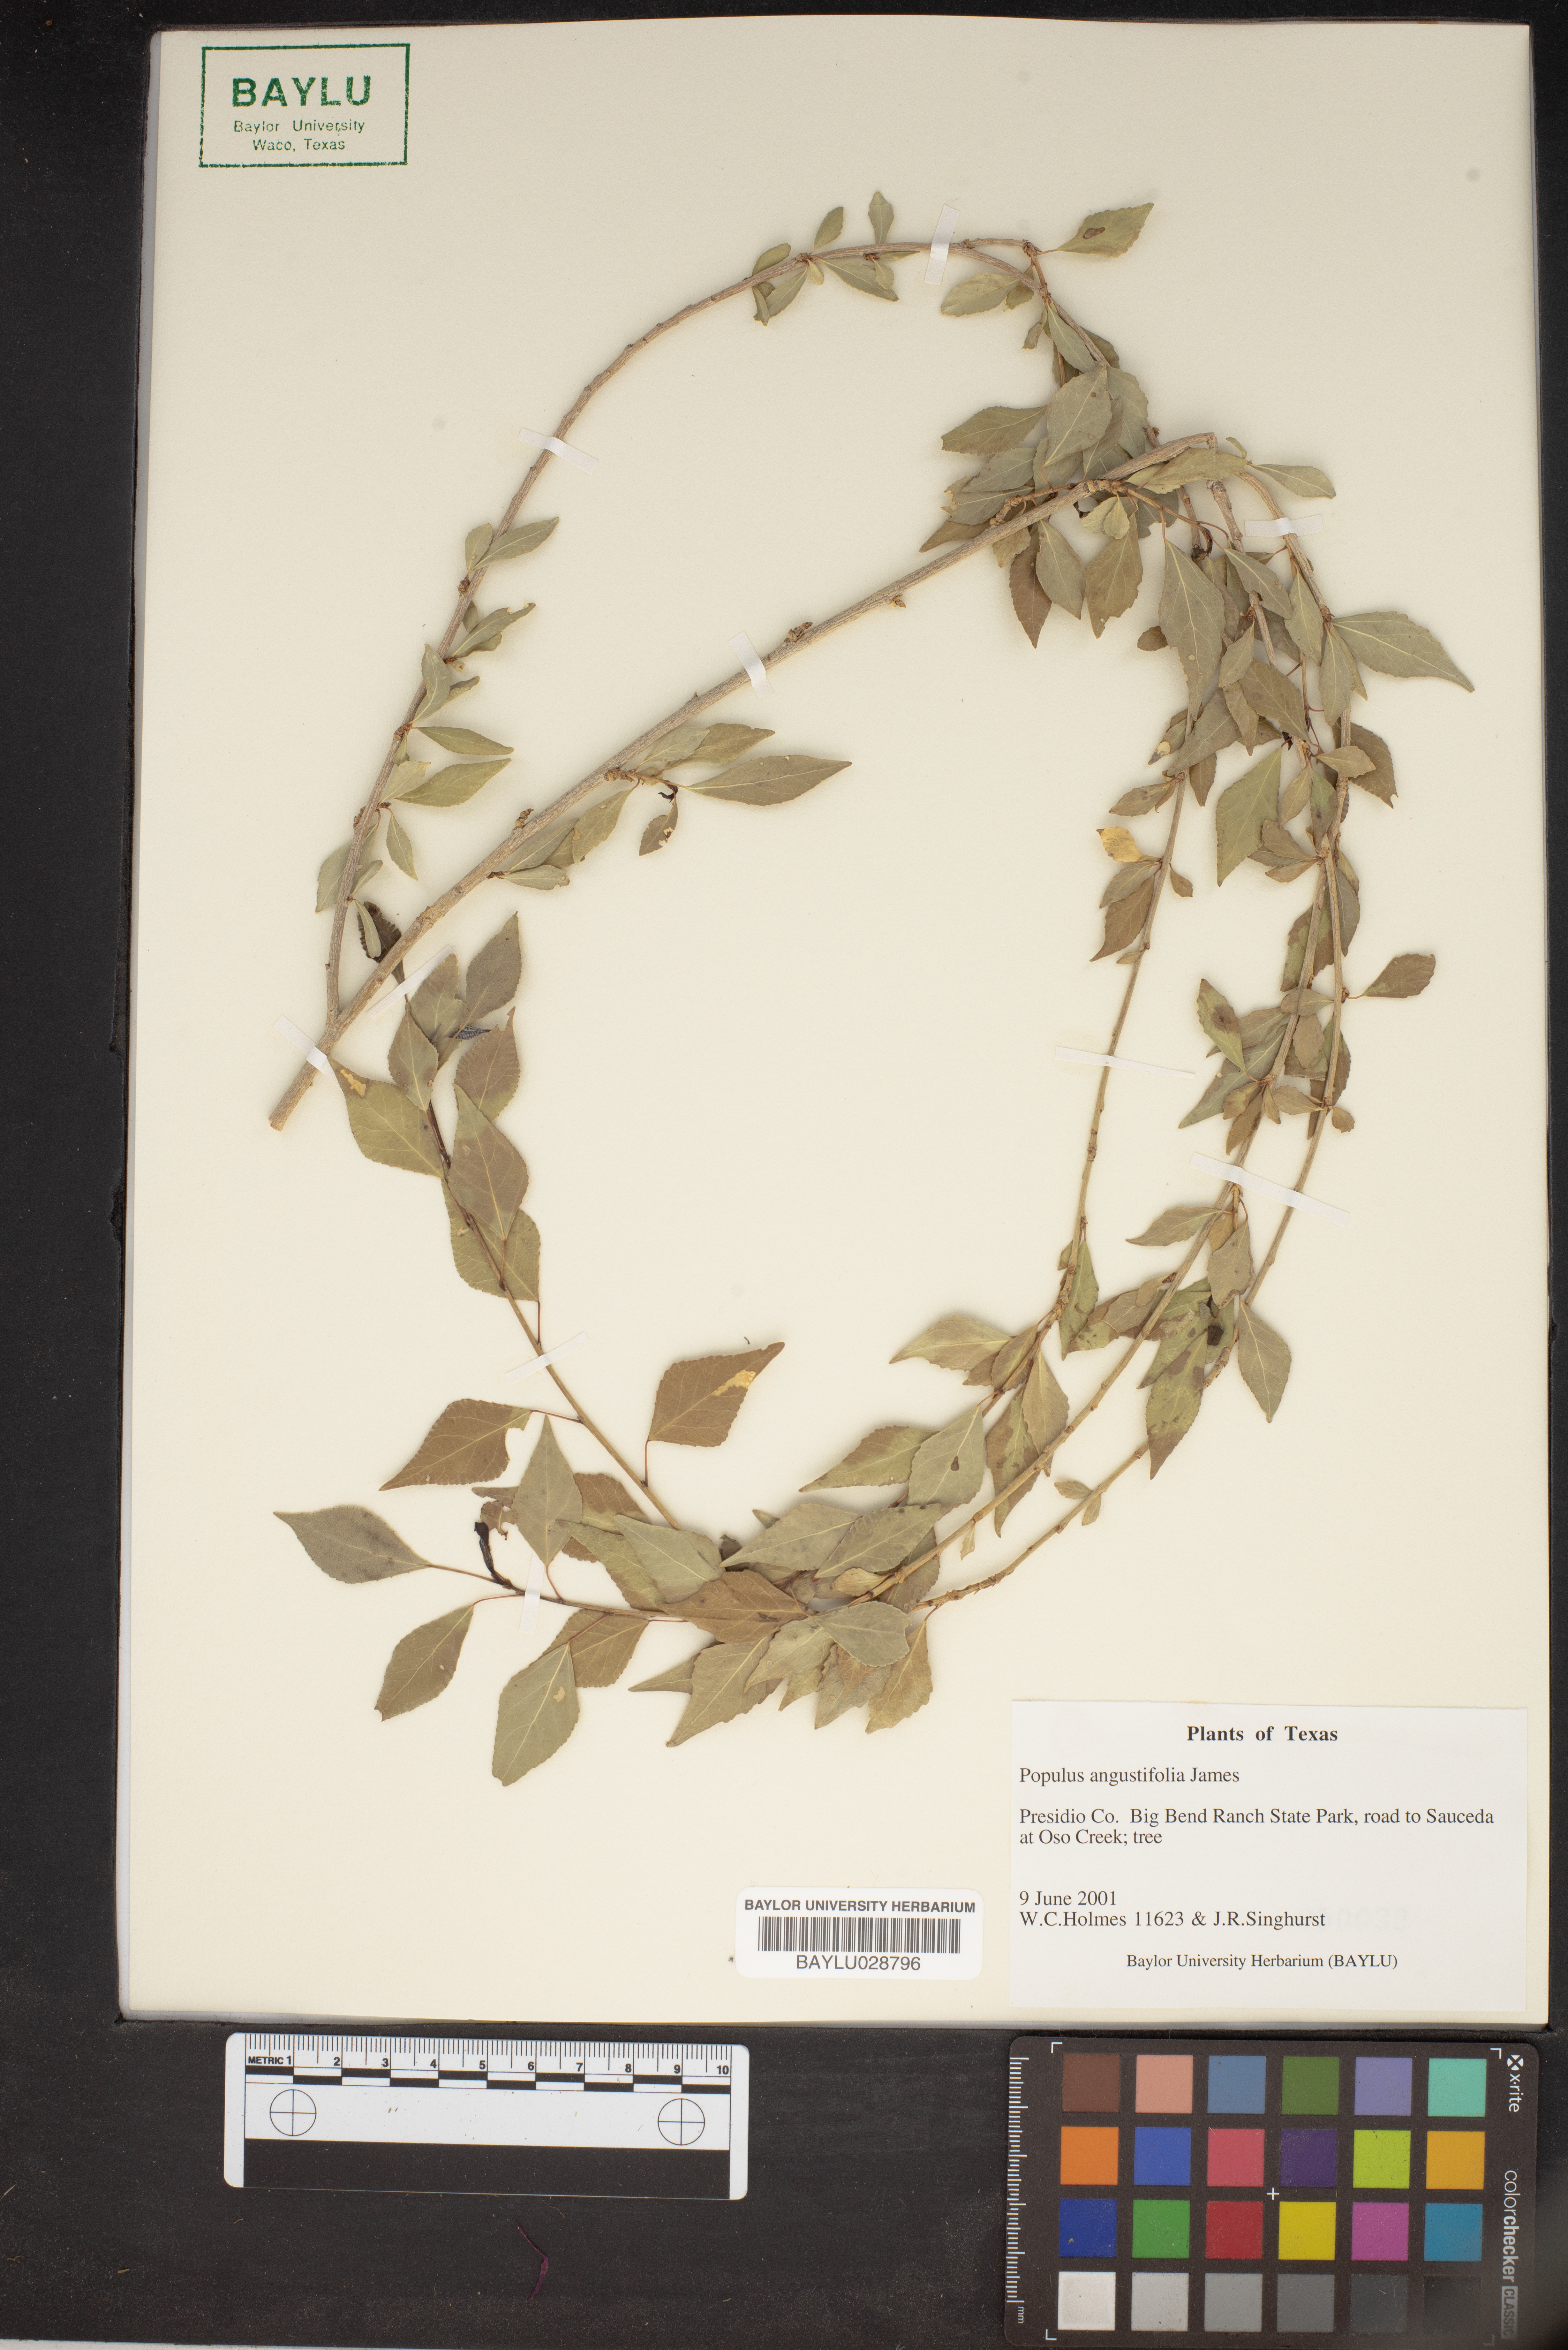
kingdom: Plantae
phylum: Tracheophyta
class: Magnoliopsida
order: Malpighiales
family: Salicaceae
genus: Populus
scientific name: Populus angustifolia
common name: Willow cottonwood
